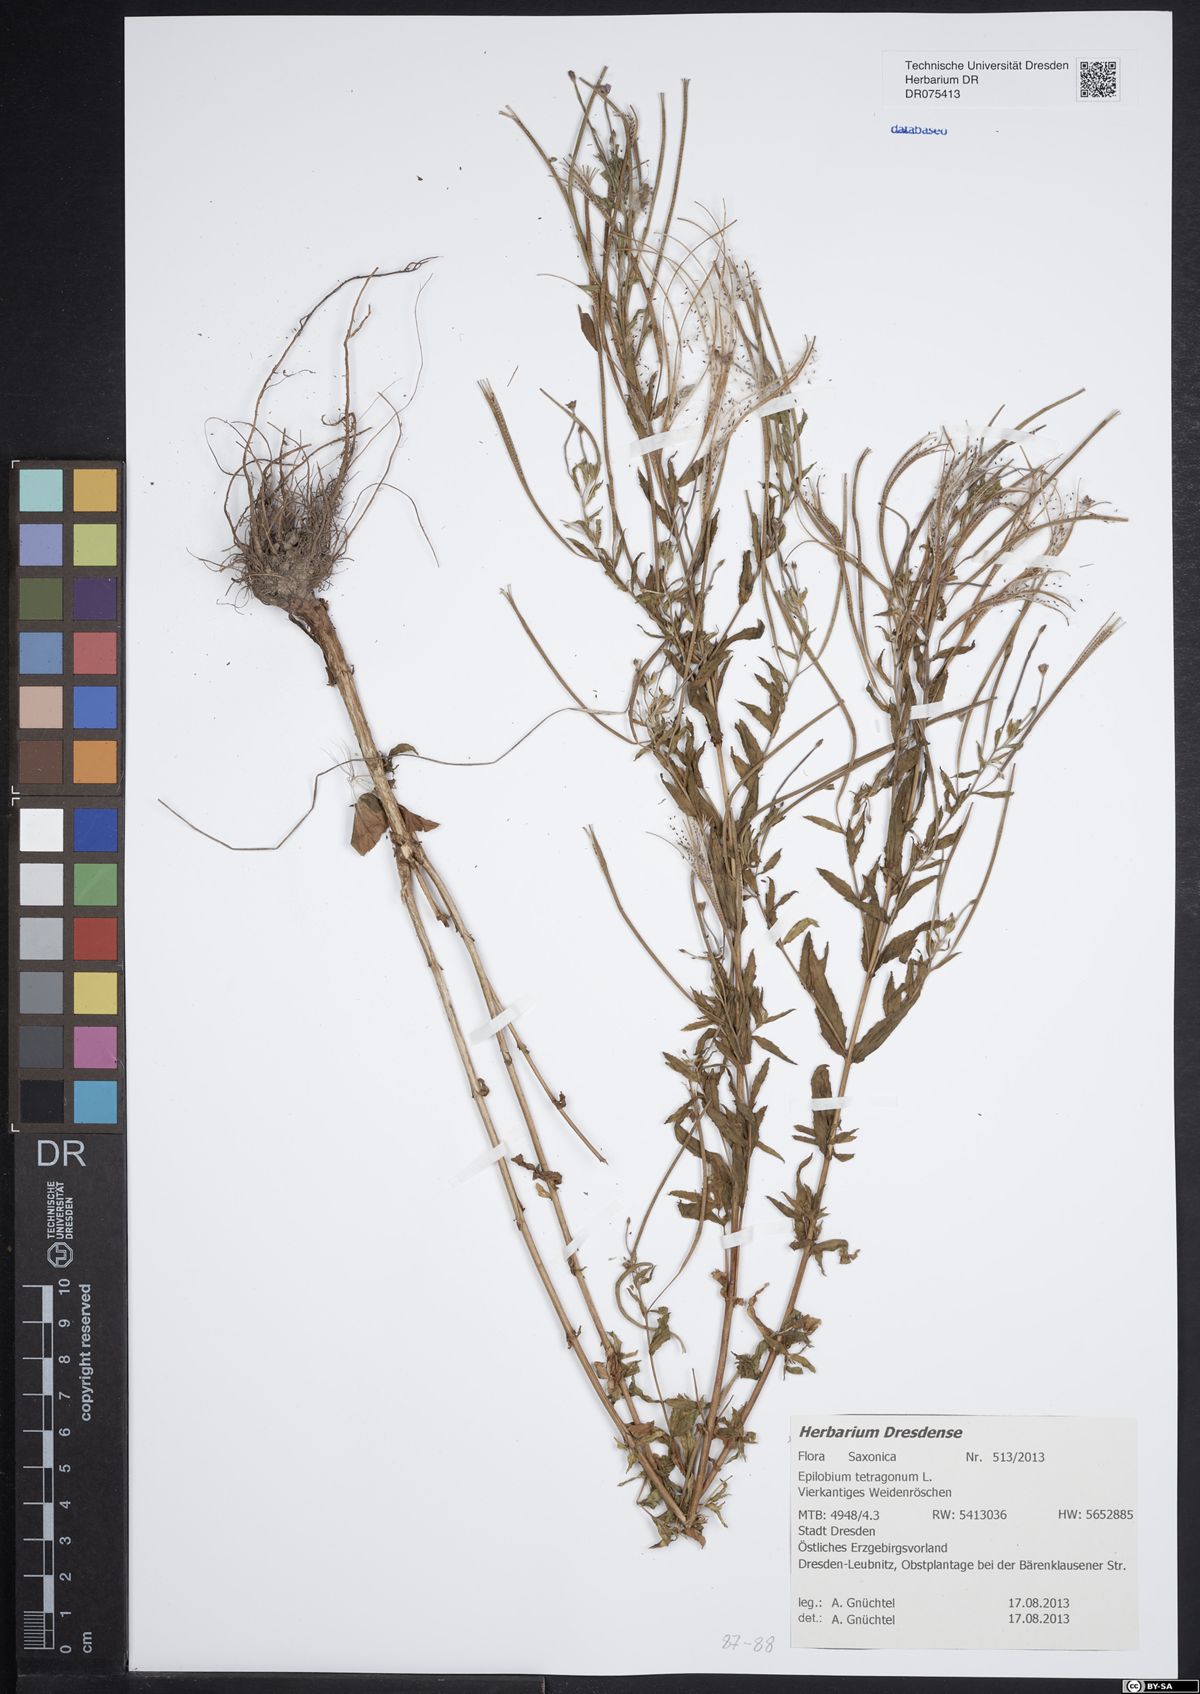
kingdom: Plantae
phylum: Tracheophyta
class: Magnoliopsida
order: Myrtales
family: Onagraceae
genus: Epilobium
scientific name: Epilobium tetragonum
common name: Square-stemmed willowherb
